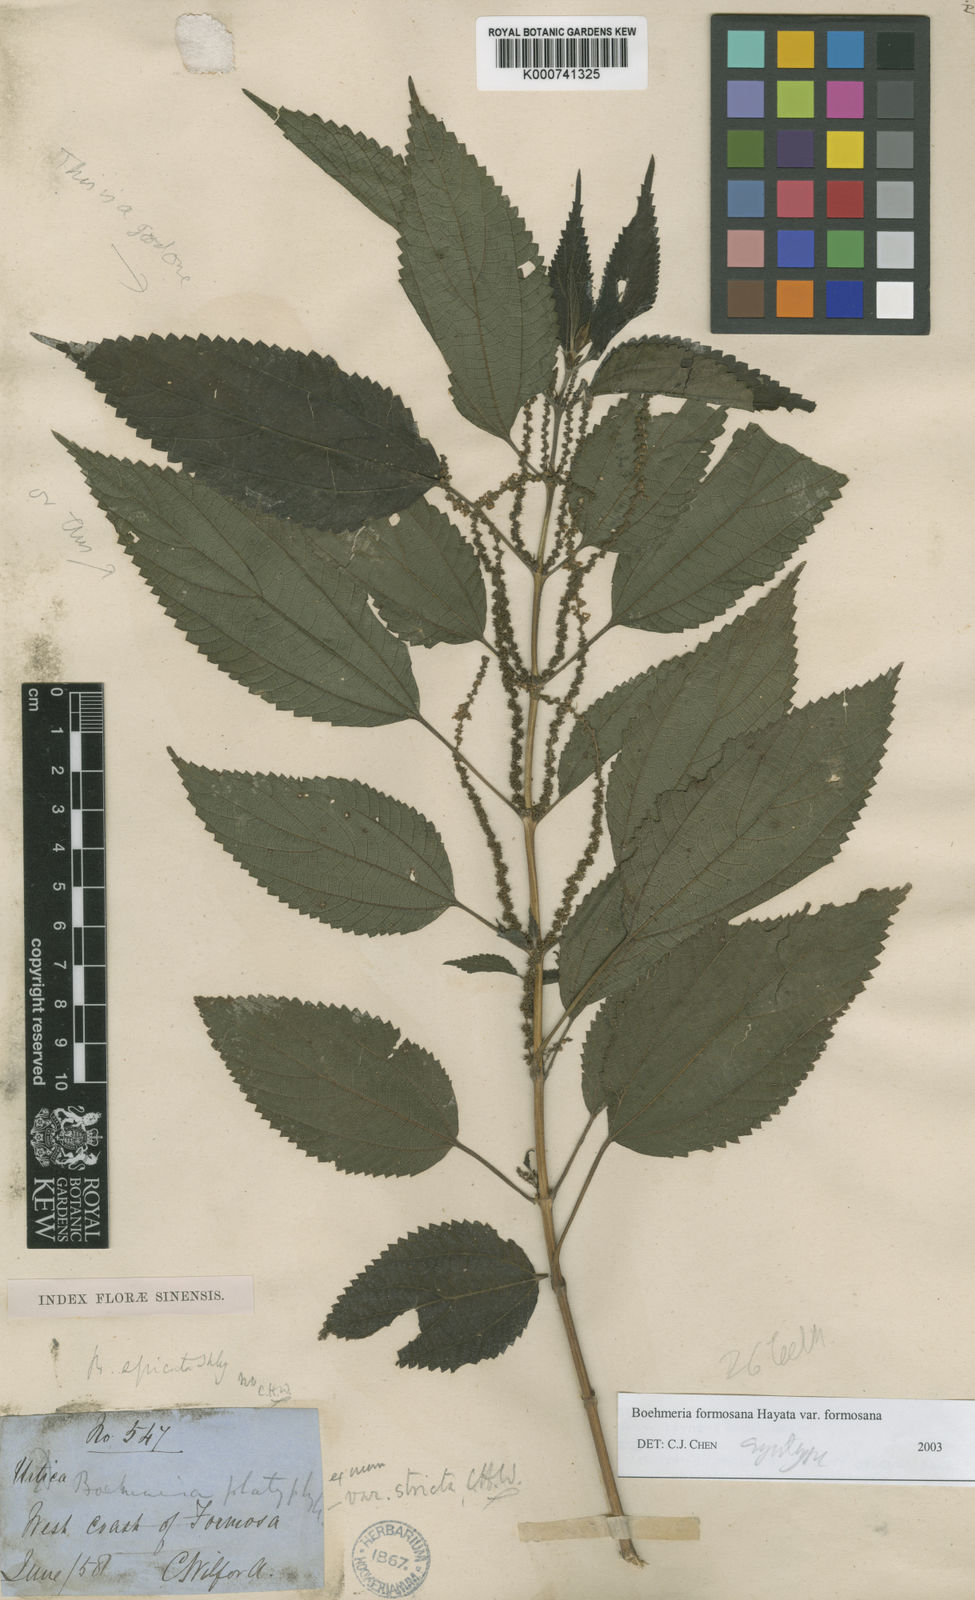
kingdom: Plantae
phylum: Tracheophyta
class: Magnoliopsida
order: Rosales
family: Urticaceae
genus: Boehmeria
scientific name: Boehmeria sieboldiana
